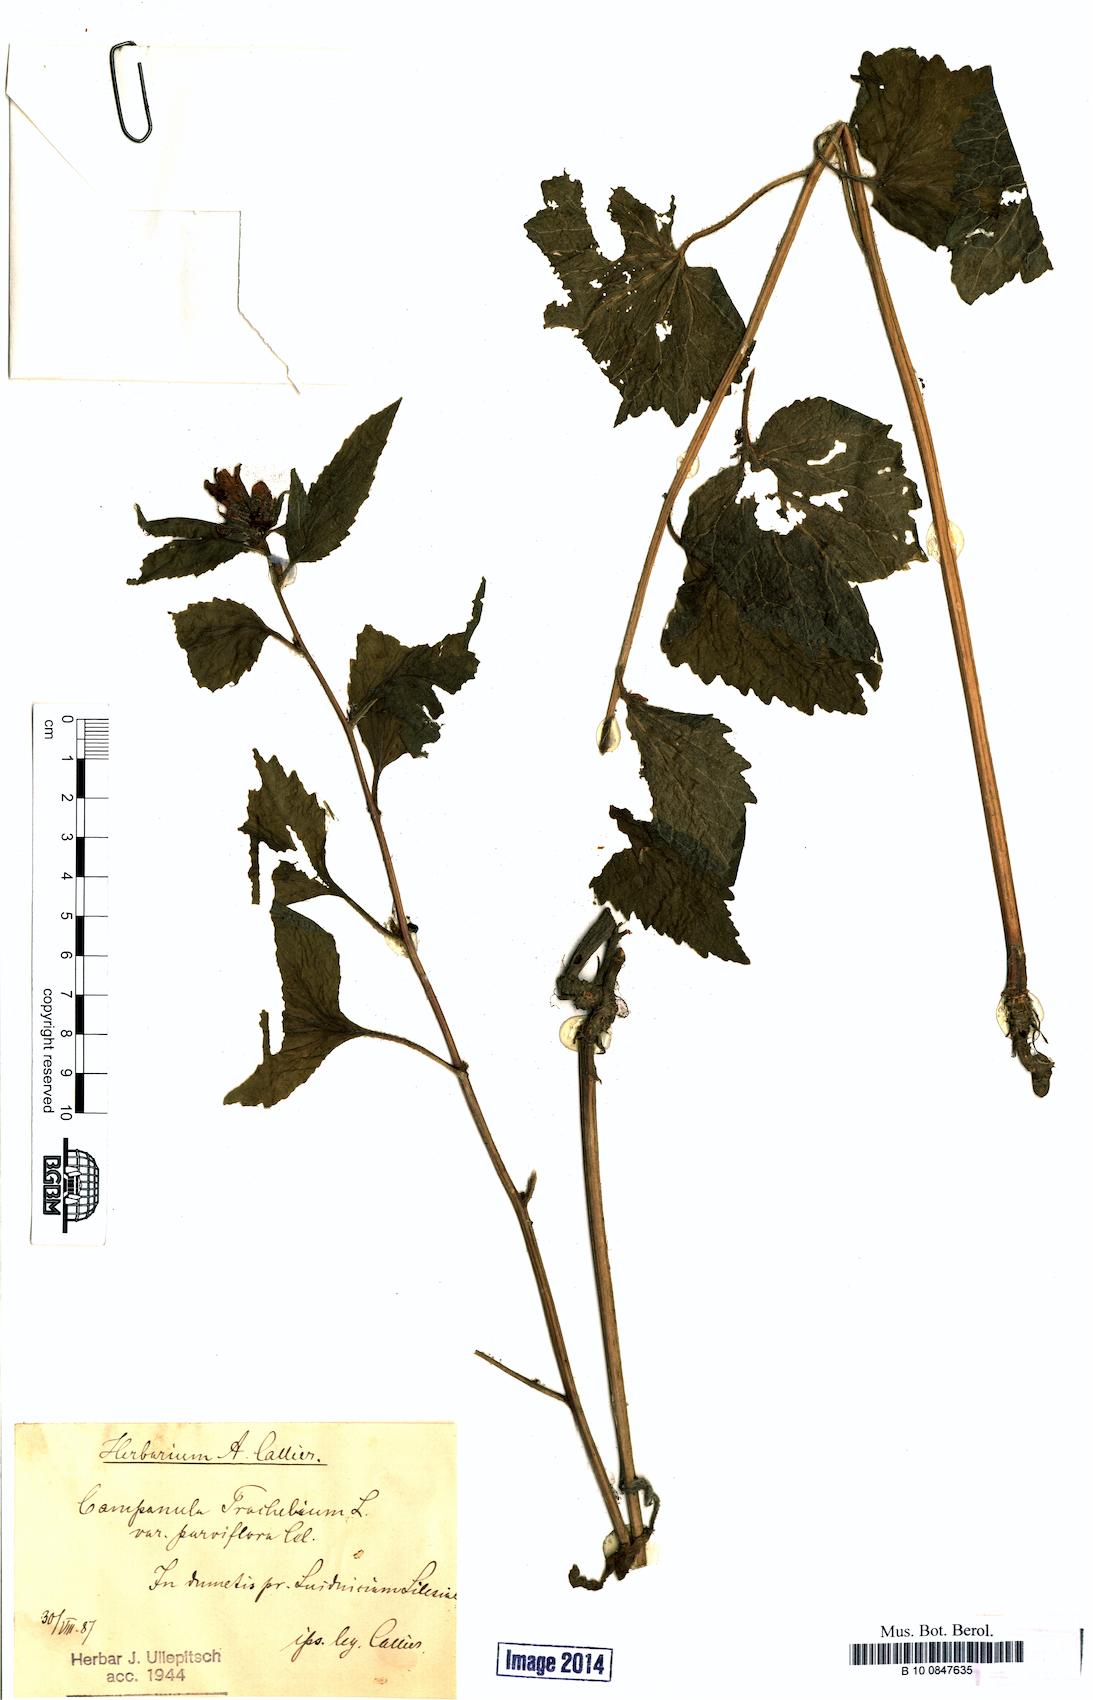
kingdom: Plantae
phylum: Tracheophyta
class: Magnoliopsida
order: Asterales
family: Campanulaceae
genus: Campanula
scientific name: Campanula trachelium
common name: Nettle-leaved bellflower
